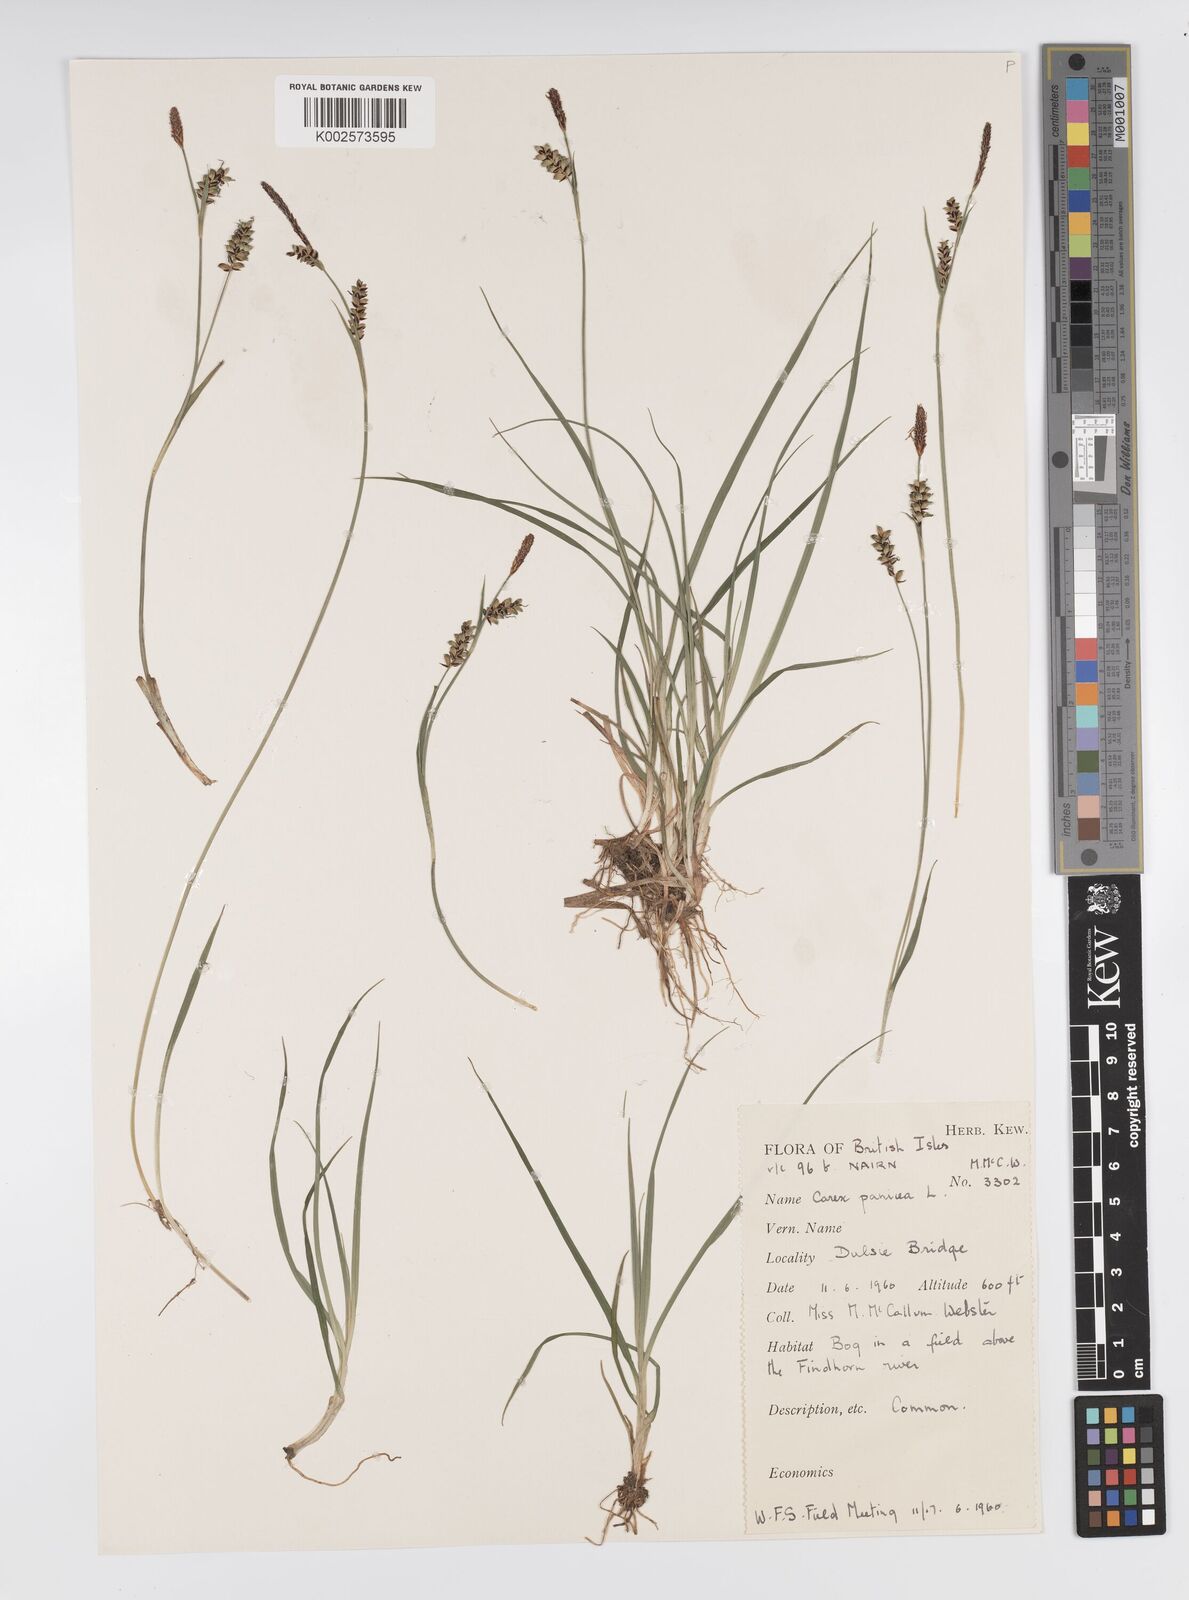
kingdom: Plantae
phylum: Tracheophyta
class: Liliopsida
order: Poales
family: Cyperaceae
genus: Carex
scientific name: Carex panicea
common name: Carnation sedge
